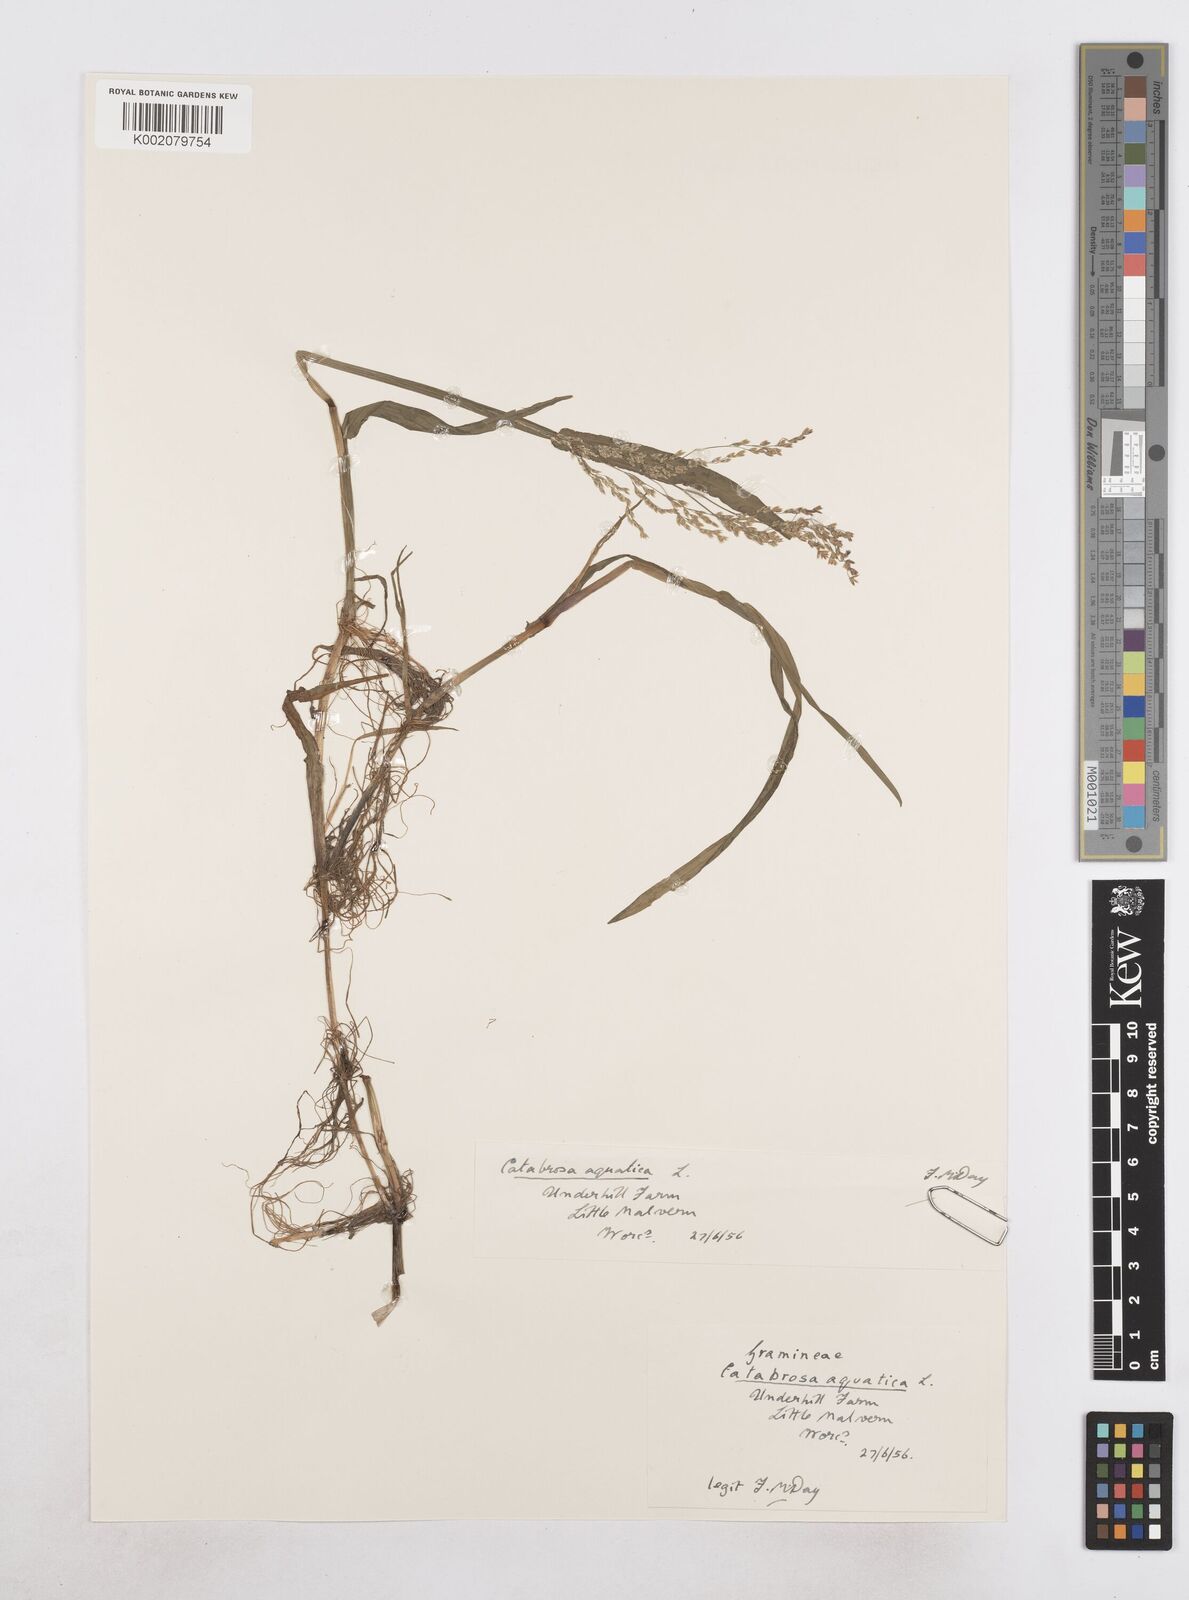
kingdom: Plantae
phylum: Tracheophyta
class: Liliopsida
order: Poales
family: Poaceae
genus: Catabrosa
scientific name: Catabrosa aquatica
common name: Whorl-grass
